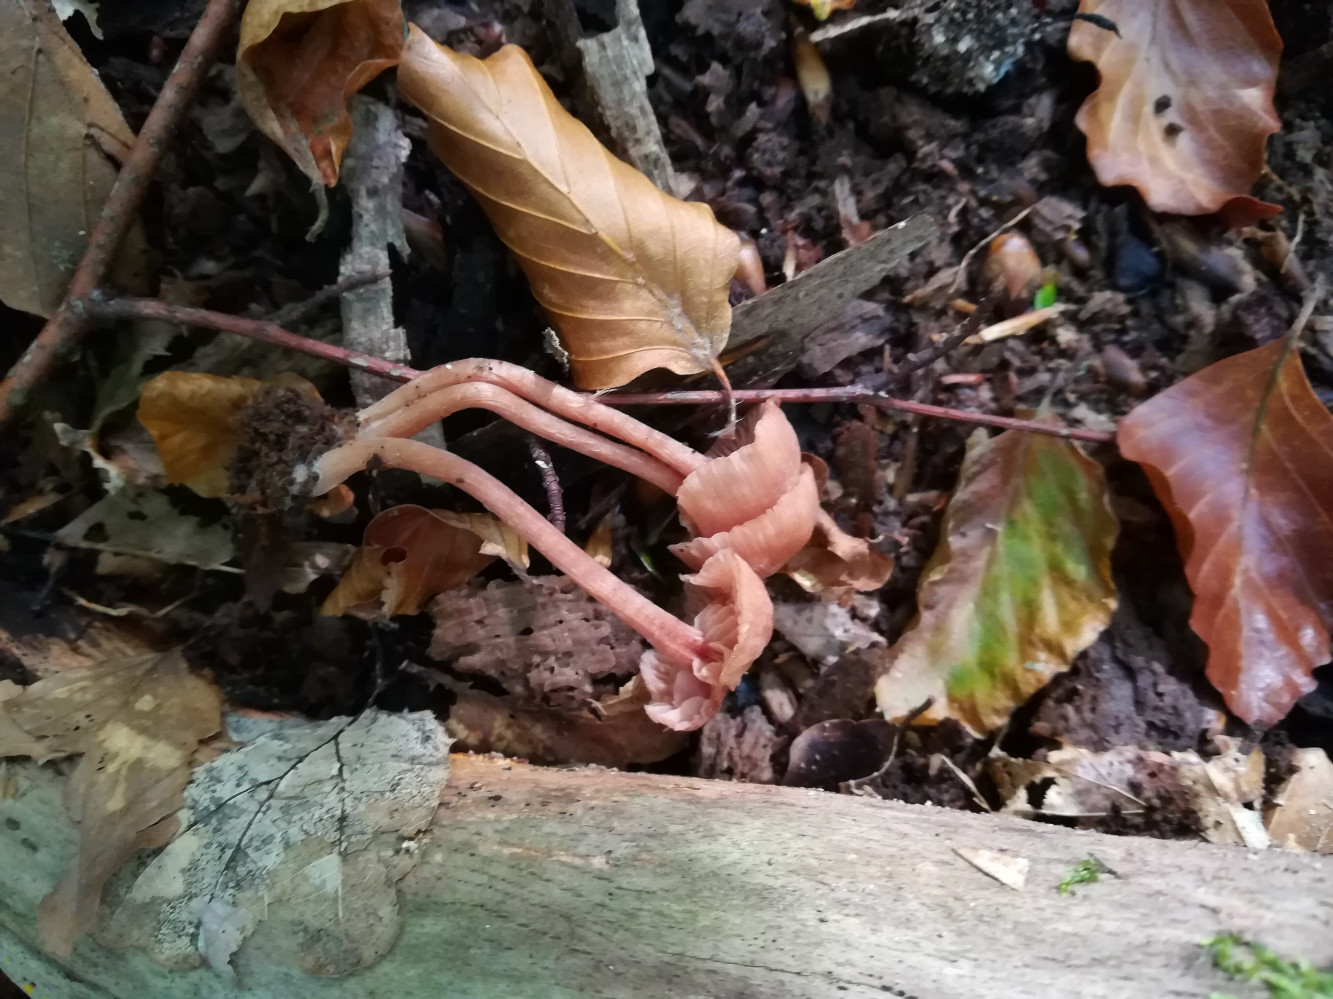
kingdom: Fungi
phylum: Basidiomycota
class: Agaricomycetes
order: Agaricales
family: Hydnangiaceae
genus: Laccaria
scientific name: Laccaria laccata
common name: rød ametysthat
